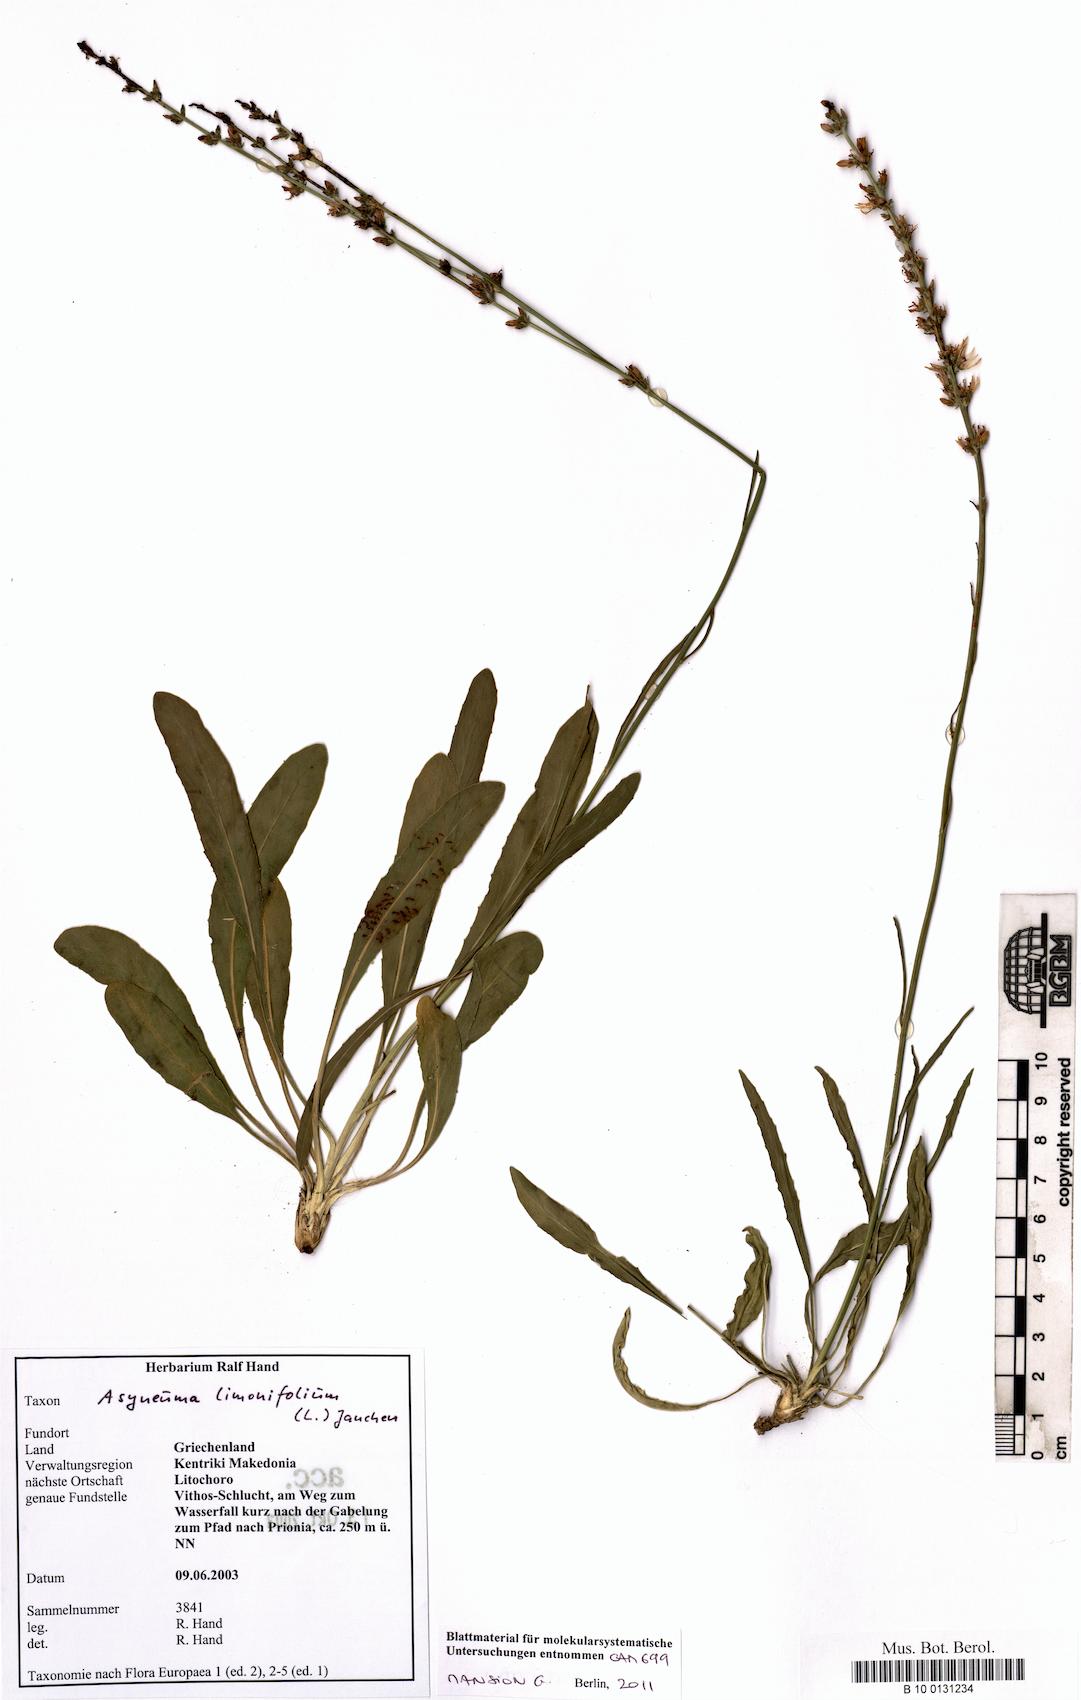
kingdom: Plantae
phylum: Tracheophyta
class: Magnoliopsida
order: Asterales
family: Campanulaceae
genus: Asyneuma
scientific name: Asyneuma limonifolium
